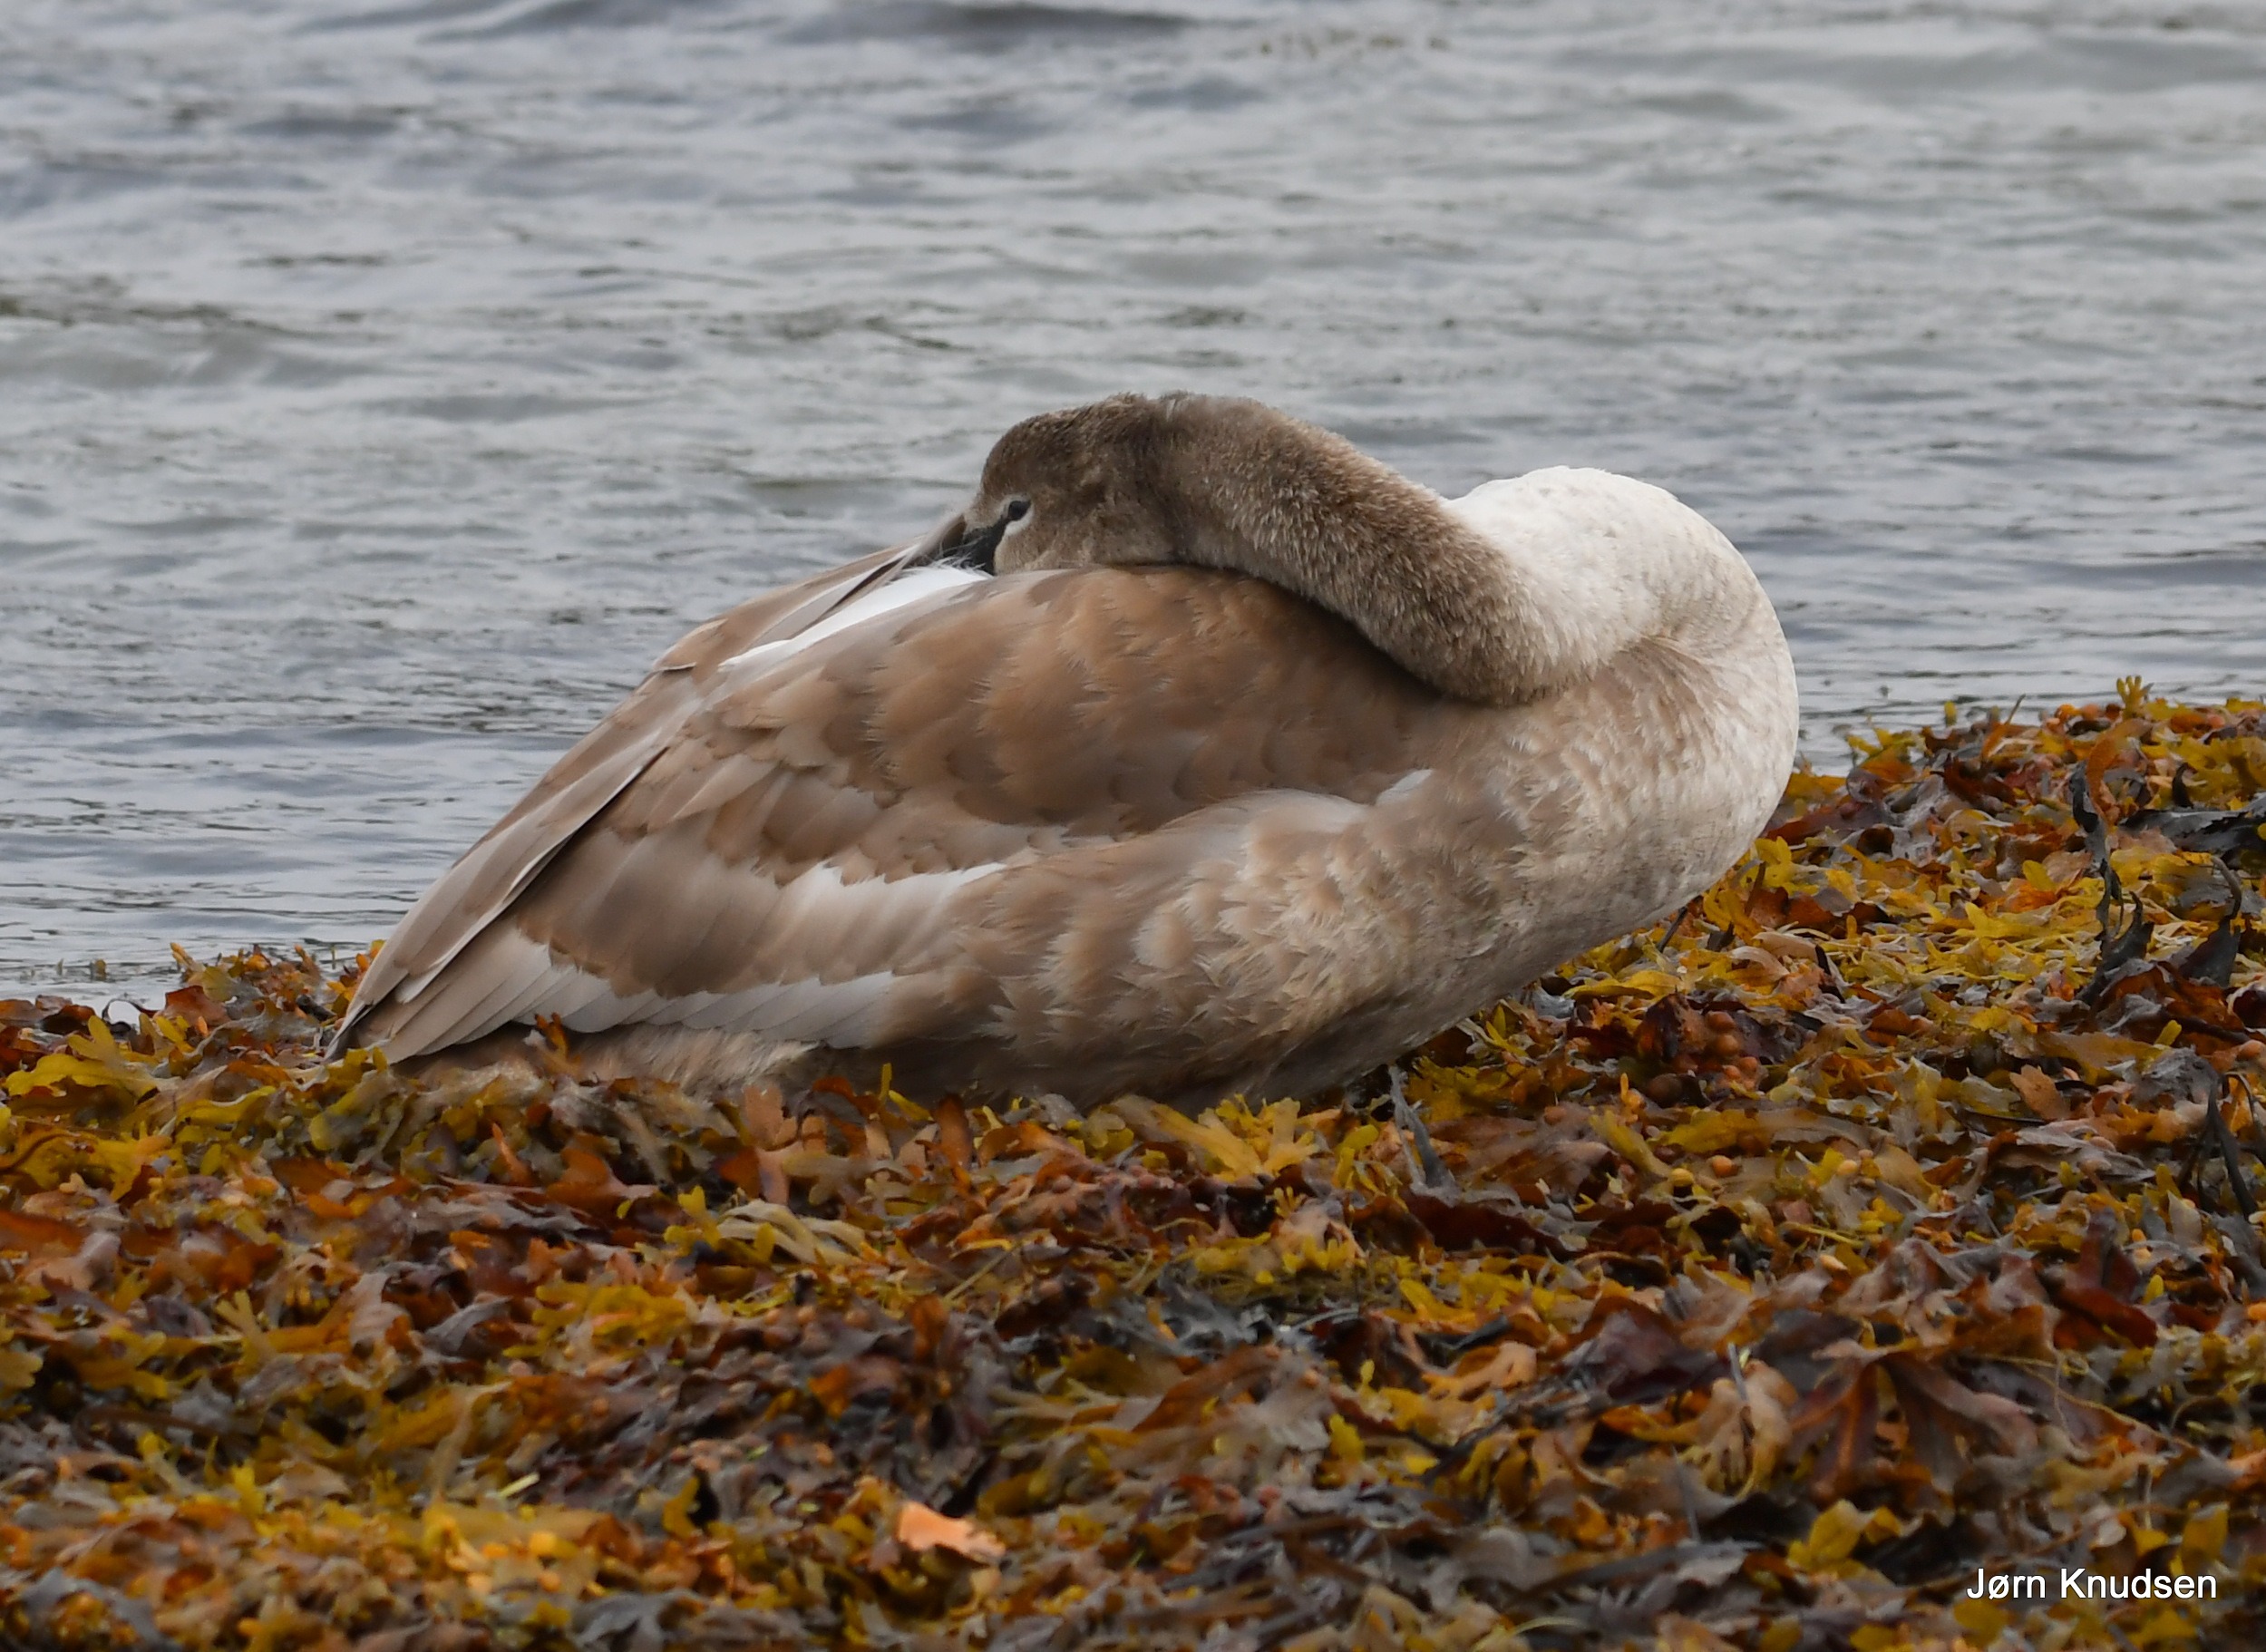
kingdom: Animalia
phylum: Chordata
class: Aves
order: Anseriformes
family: Anatidae
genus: Cygnus
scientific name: Cygnus olor
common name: Knopsvane
